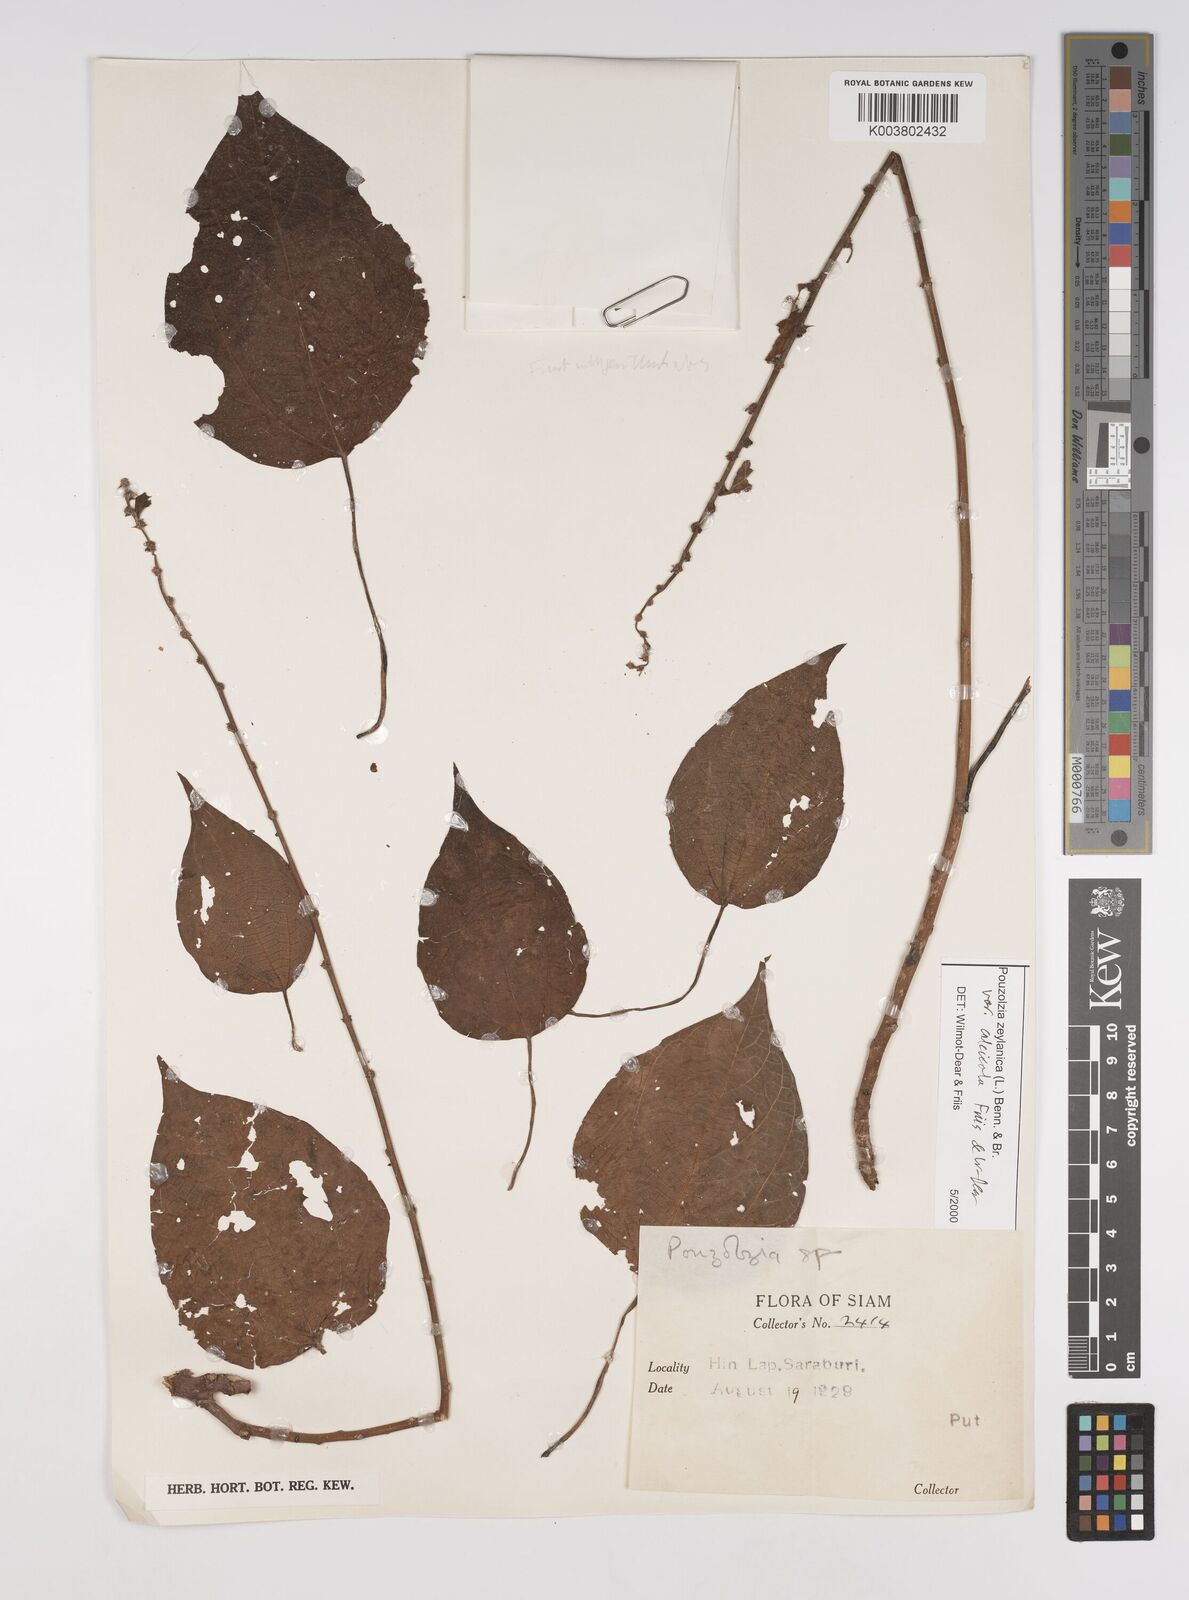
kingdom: Plantae
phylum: Tracheophyta
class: Magnoliopsida
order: Rosales
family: Urticaceae
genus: Pouzolzia
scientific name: Pouzolzia zeylanica
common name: Graceful pouzolzsbush
